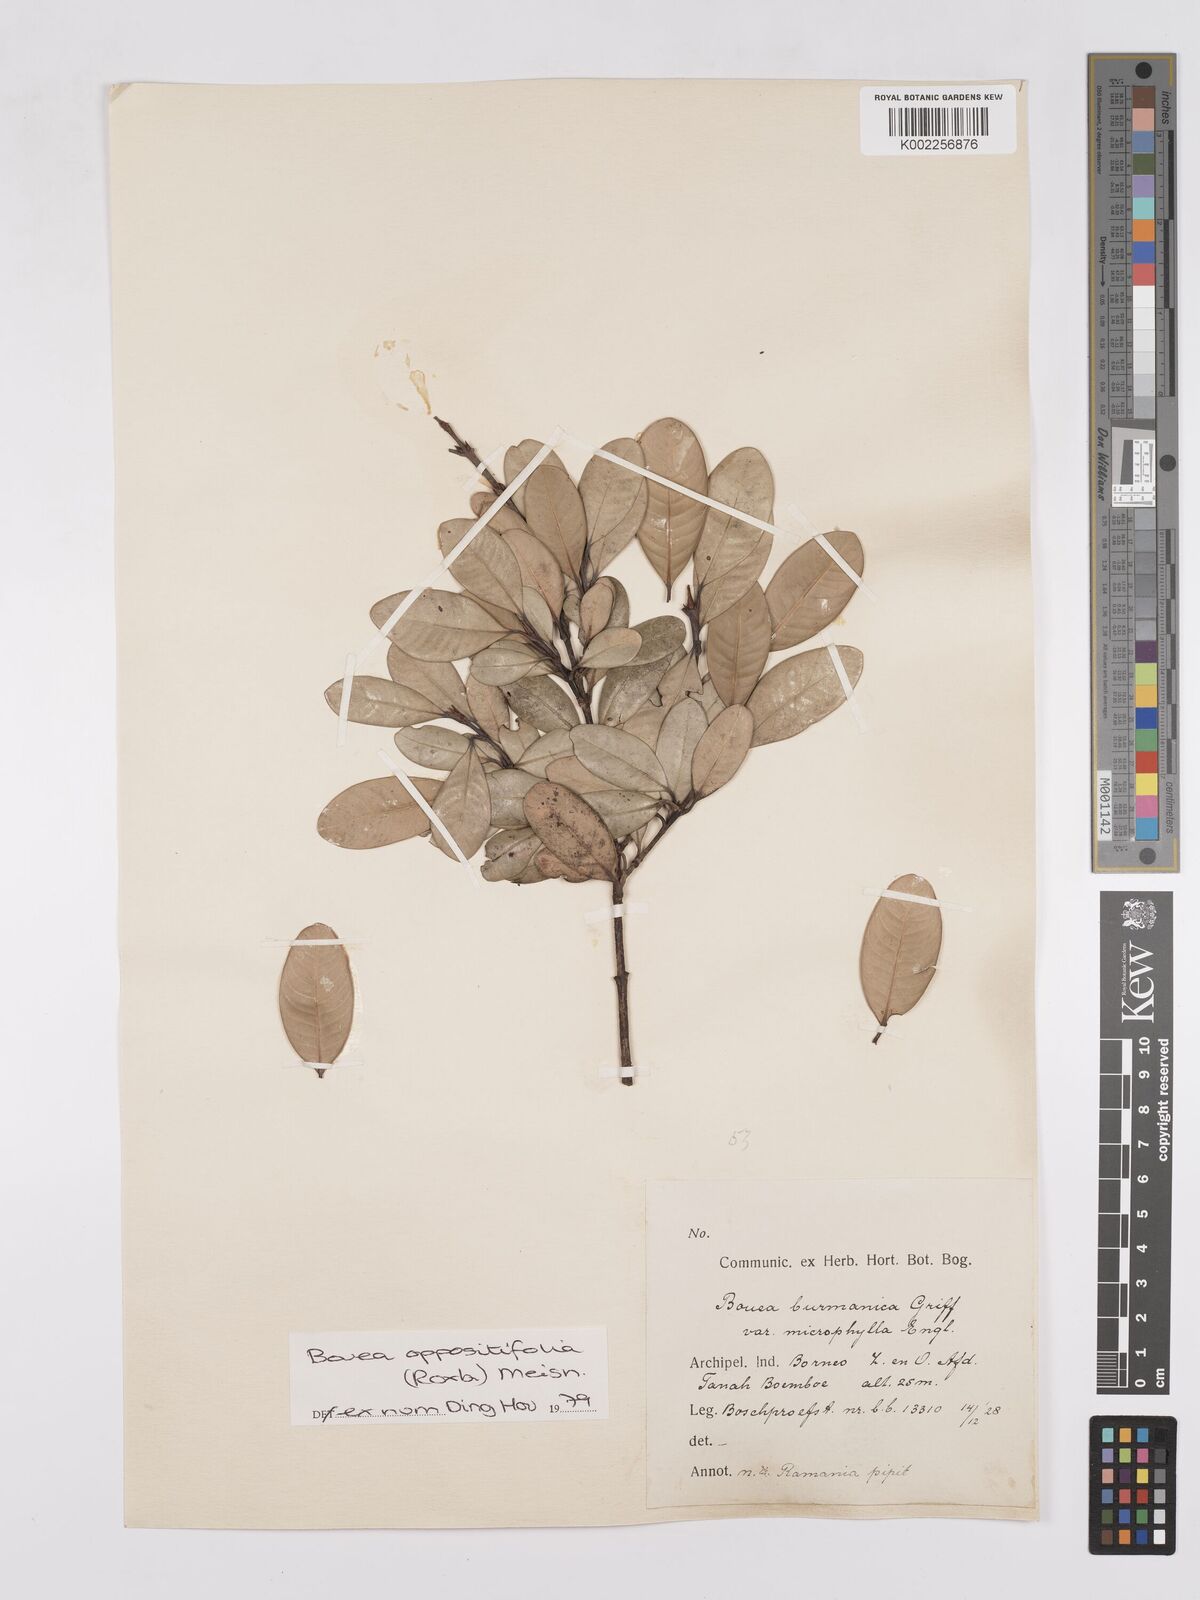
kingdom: Plantae
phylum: Tracheophyta
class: Magnoliopsida
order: Sapindales
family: Anacardiaceae
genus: Bouea
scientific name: Bouea oppositifolia
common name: Narrow-leaved kundang
